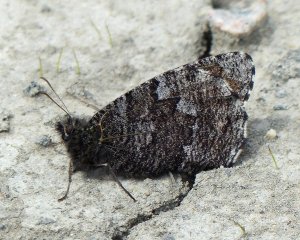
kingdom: Animalia
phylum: Arthropoda
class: Insecta
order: Lepidoptera
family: Nymphalidae
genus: Oeneis
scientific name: Oeneis jutta
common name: Jutta Arctic
